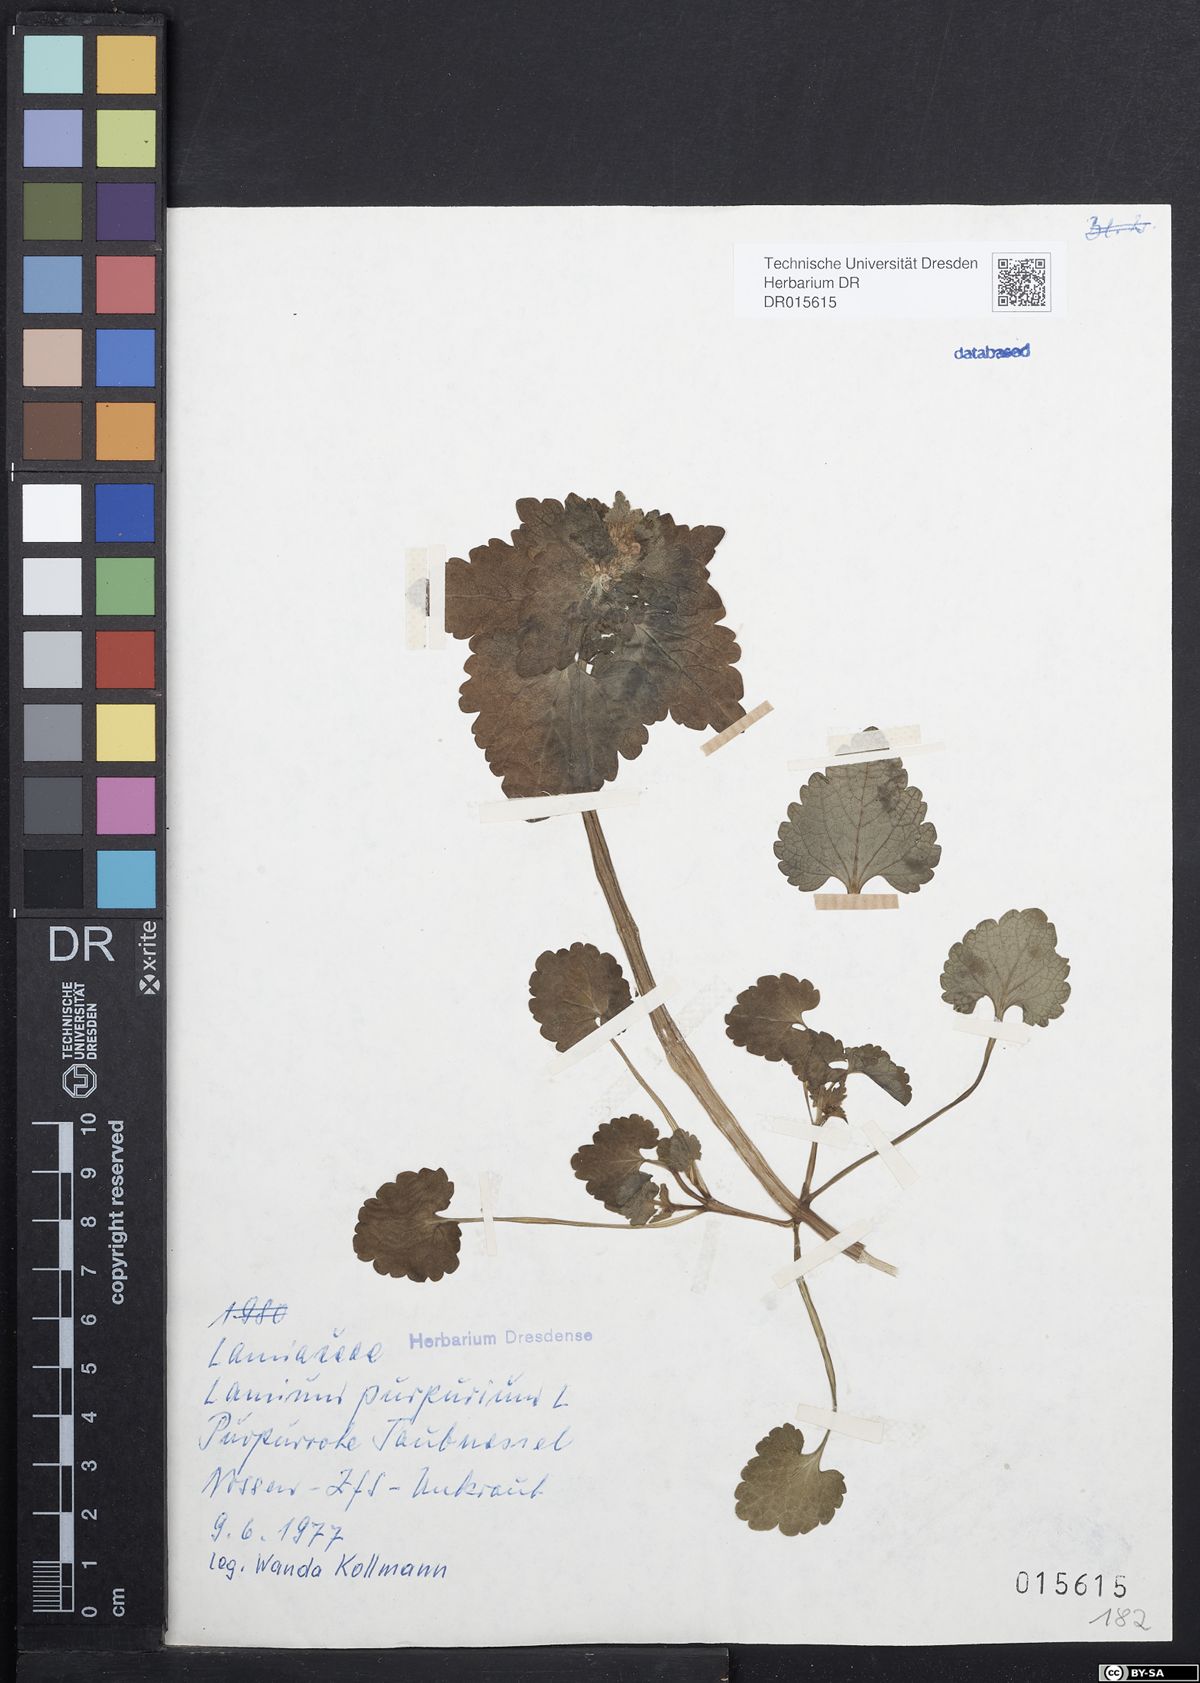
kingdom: Plantae
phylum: Tracheophyta
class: Magnoliopsida
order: Lamiales
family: Lamiaceae
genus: Lamium
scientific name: Lamium purpureum
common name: Red dead-nettle
